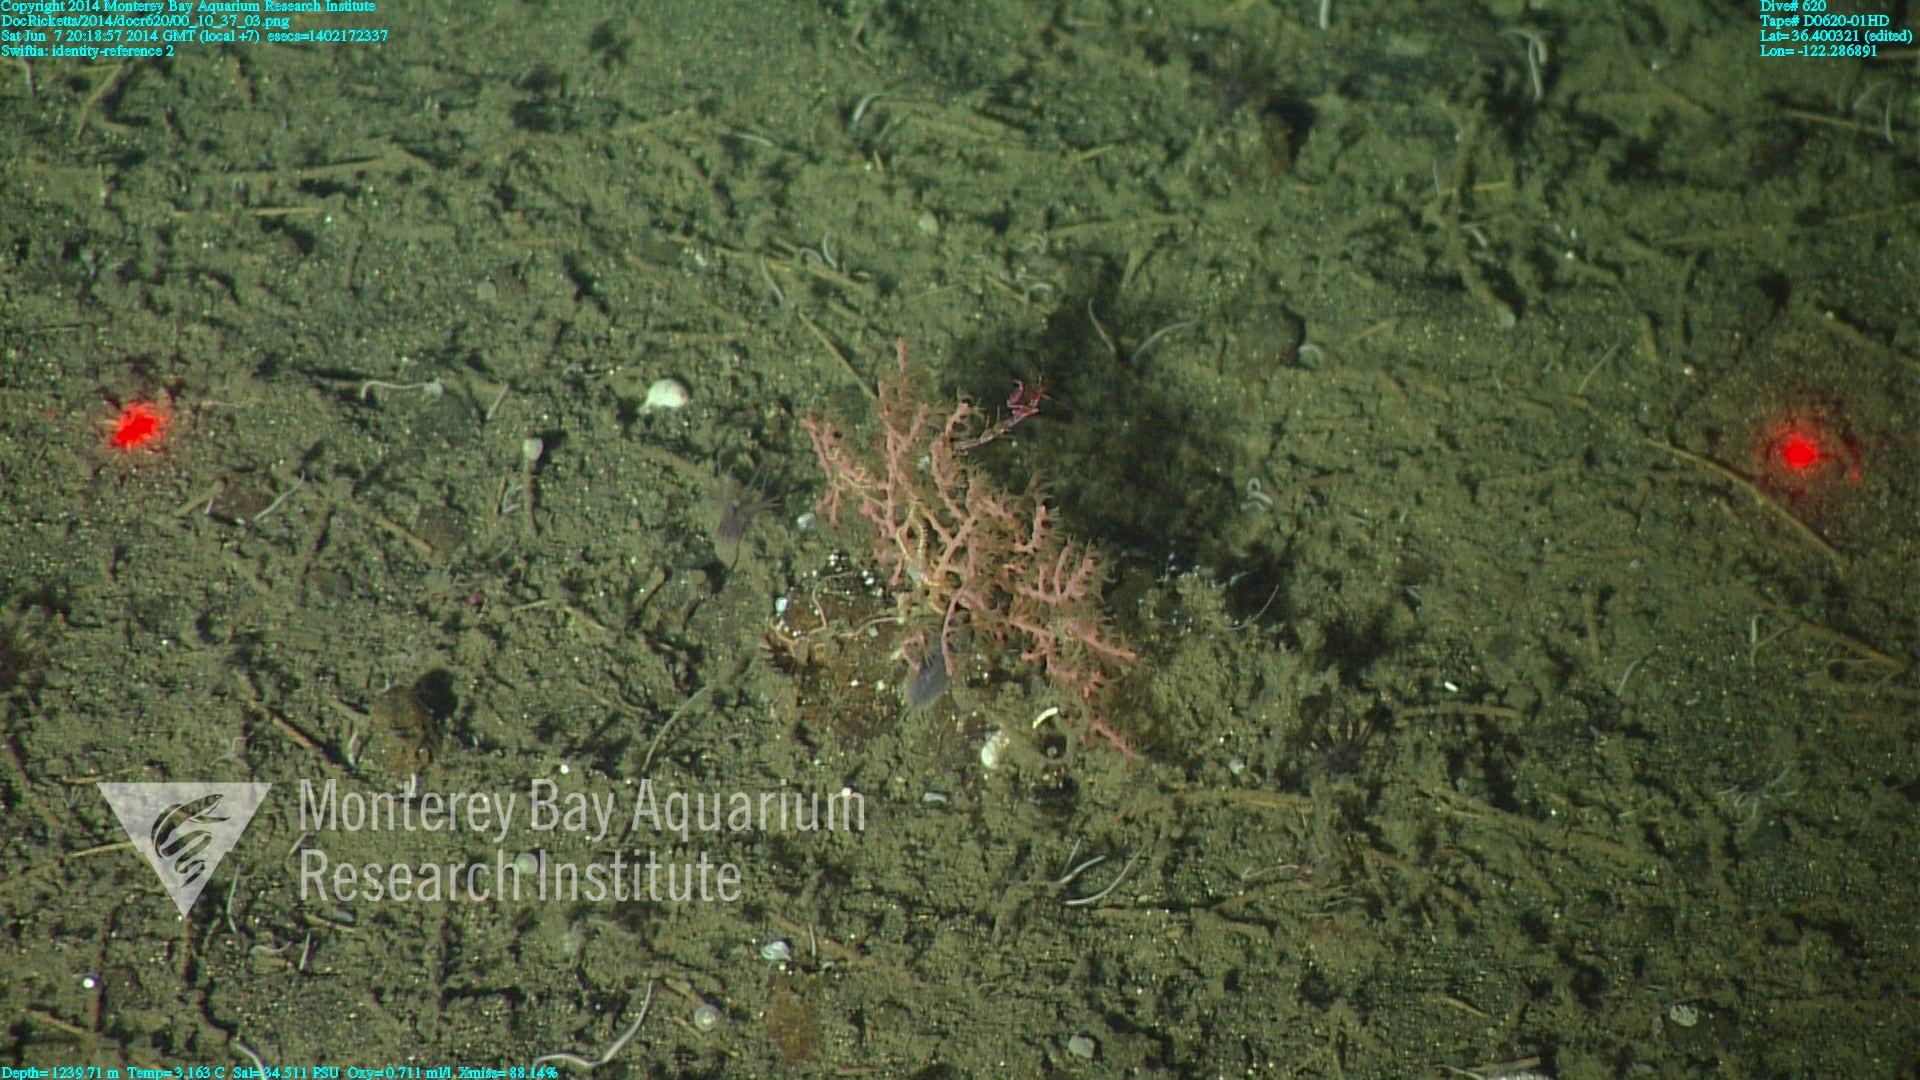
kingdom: Animalia
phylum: Cnidaria
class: Anthozoa
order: Malacalcyonacea
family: Gorgoniidae
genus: Callistephanus
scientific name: Callistephanus kofoidi
